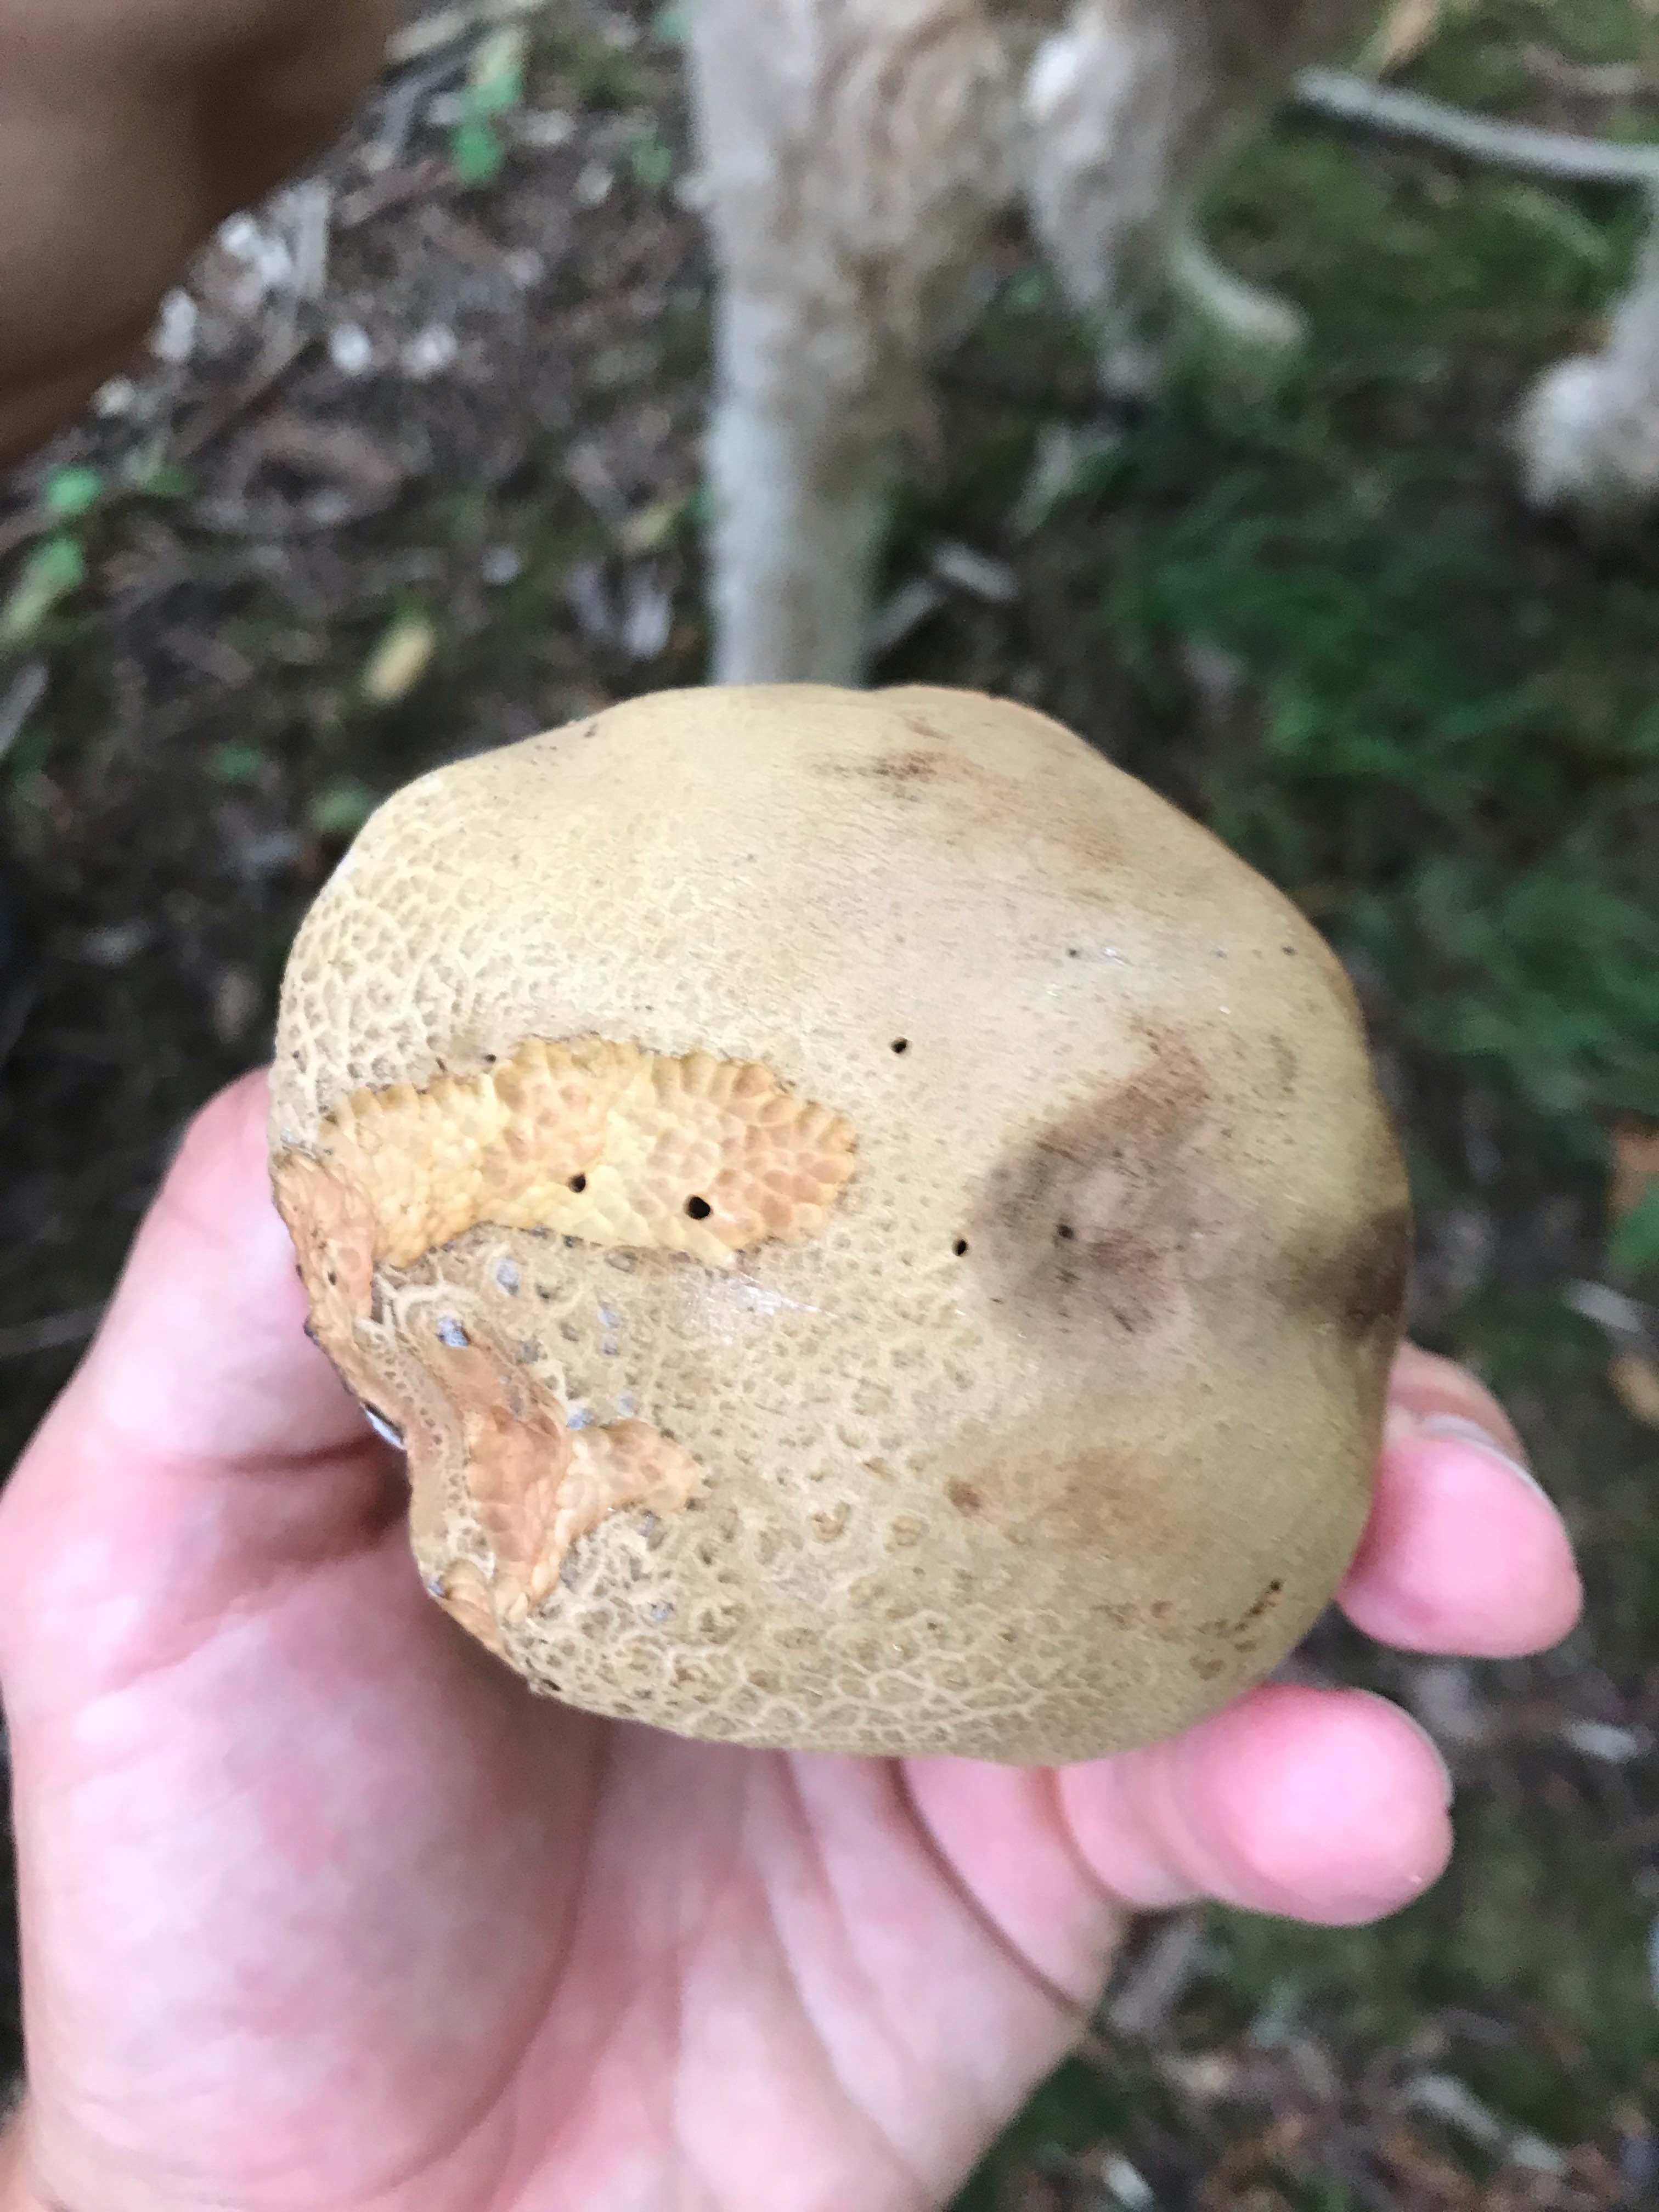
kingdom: Fungi
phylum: Basidiomycota
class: Agaricomycetes
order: Boletales
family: Boletaceae
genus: Caloboletus
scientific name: Caloboletus radicans
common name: rod-rørhat
